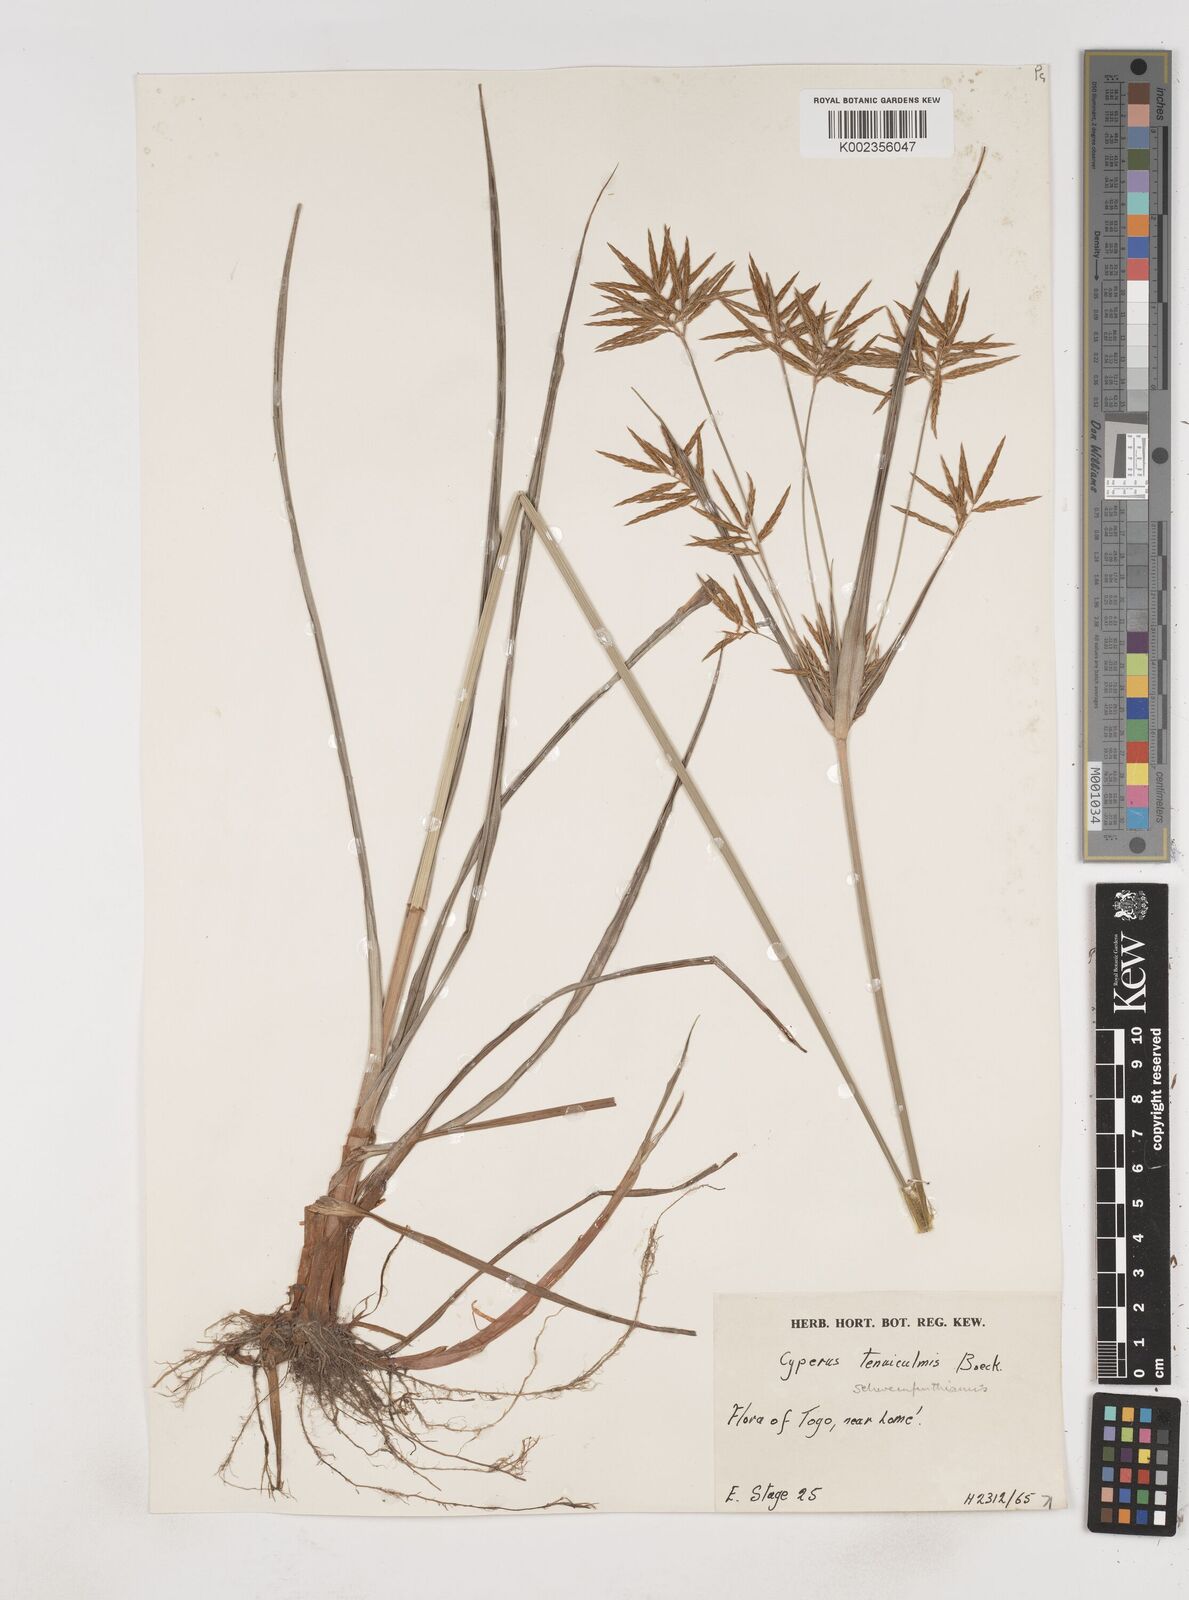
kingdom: Plantae
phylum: Tracheophyta
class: Liliopsida
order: Poales
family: Cyperaceae
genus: Cyperus
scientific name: Cyperus tenuiculmis
